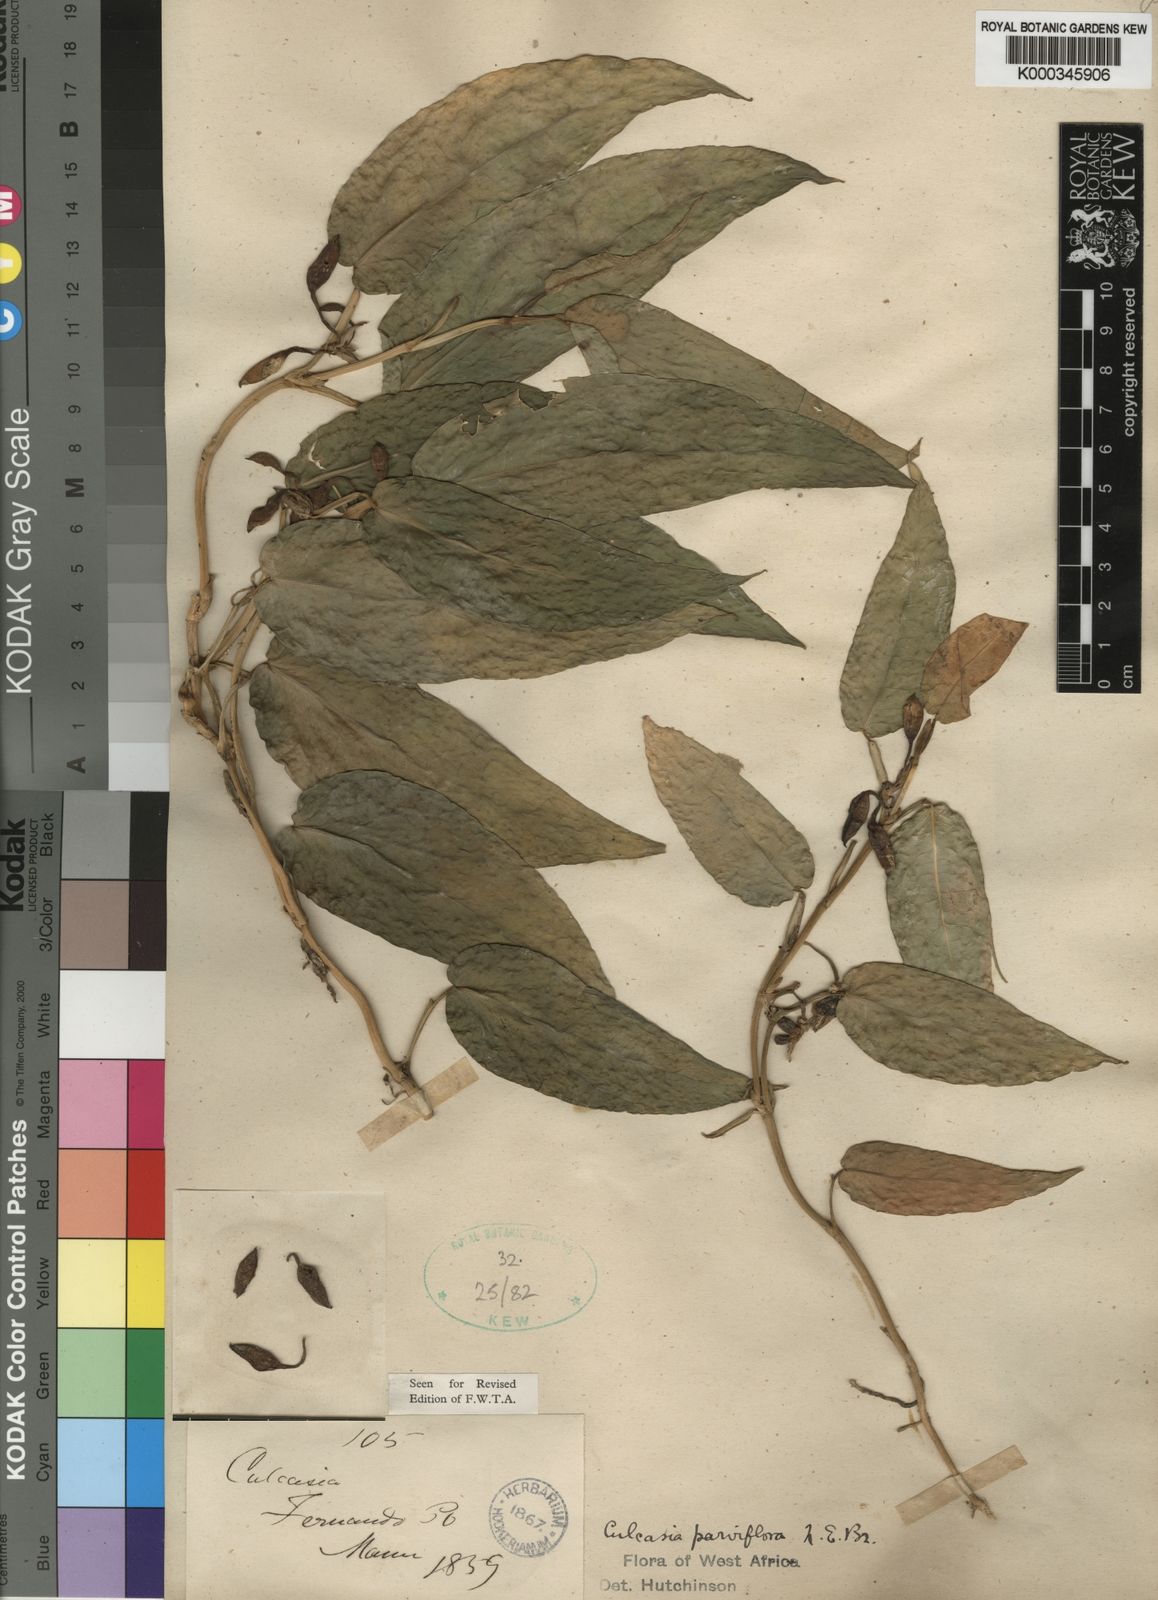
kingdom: Plantae
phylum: Tracheophyta
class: Liliopsida
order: Alismatales
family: Araceae
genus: Culcasia
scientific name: Culcasia parviflora
